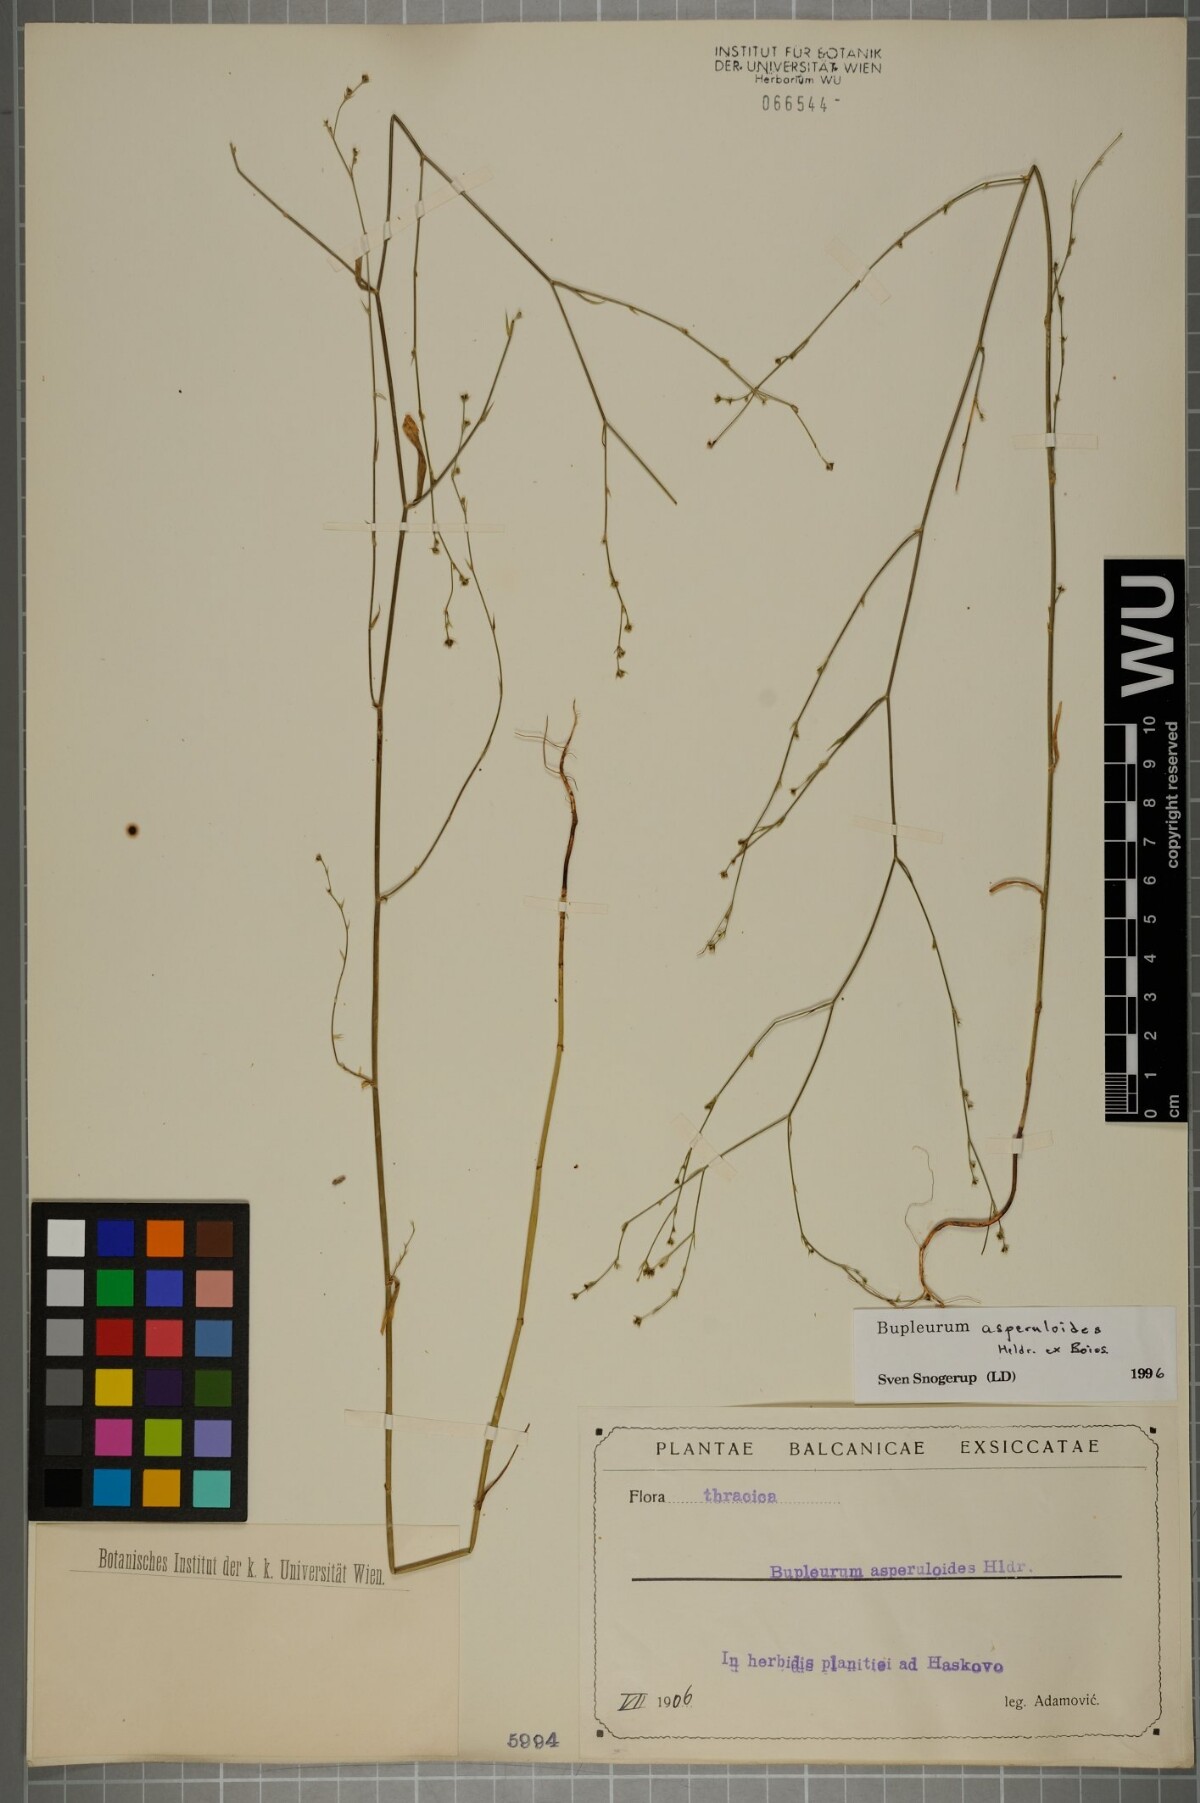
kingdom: Plantae
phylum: Tracheophyta
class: Magnoliopsida
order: Apiales
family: Apiaceae
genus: Bupleurum
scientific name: Bupleurum asperuloides
